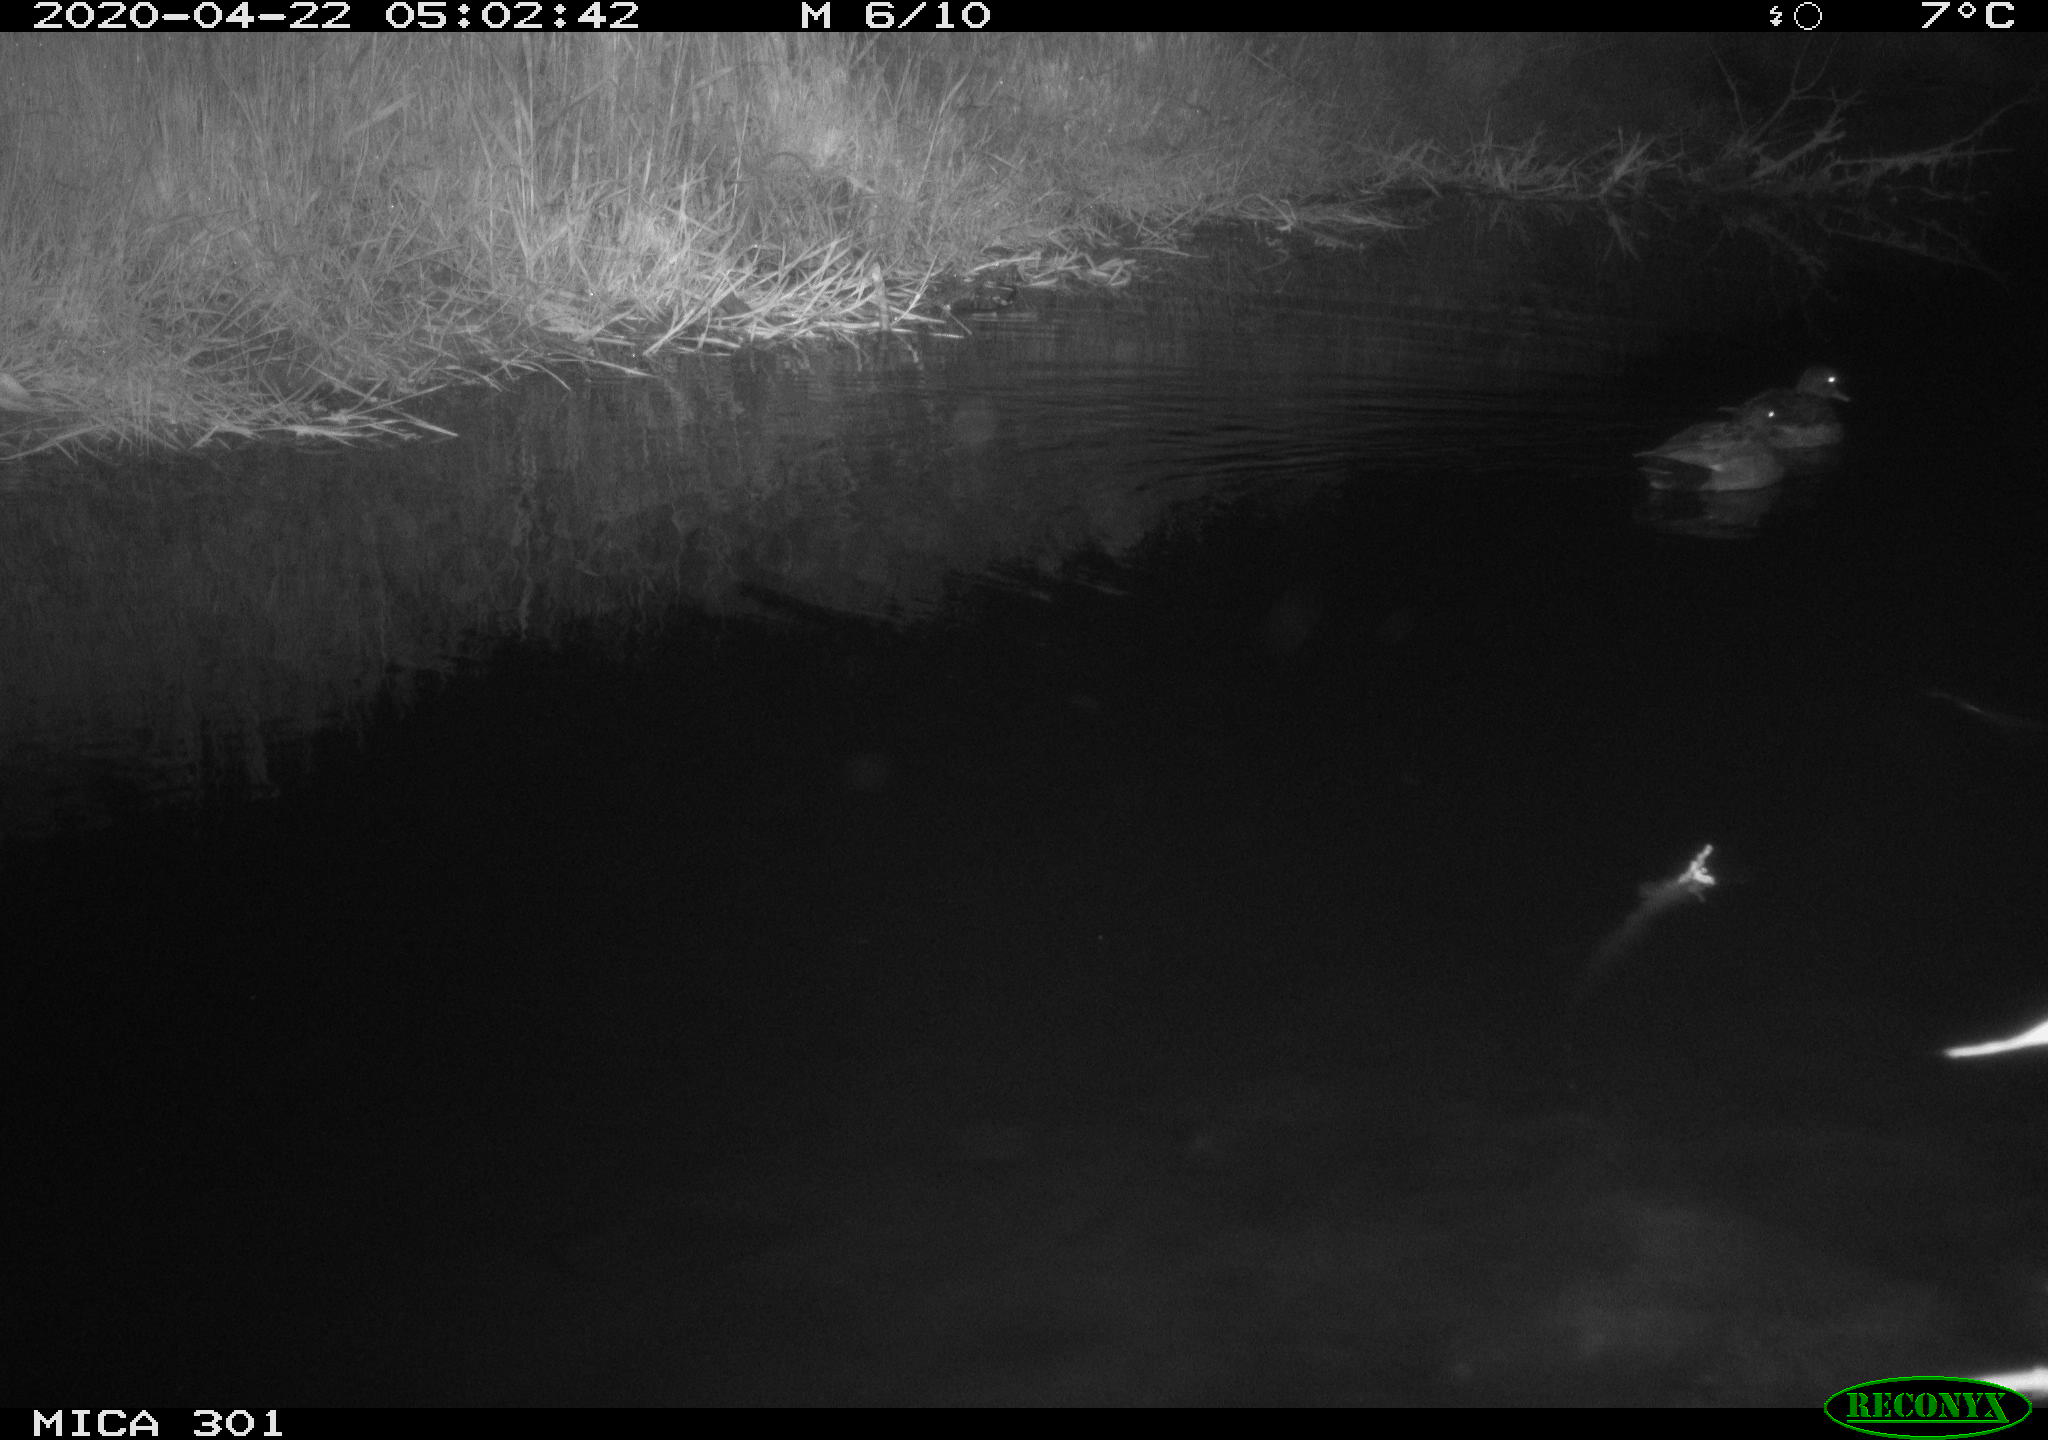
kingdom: Animalia
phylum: Chordata
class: Aves
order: Anseriformes
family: Anatidae
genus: Mareca
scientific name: Mareca strepera
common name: Gadwall
